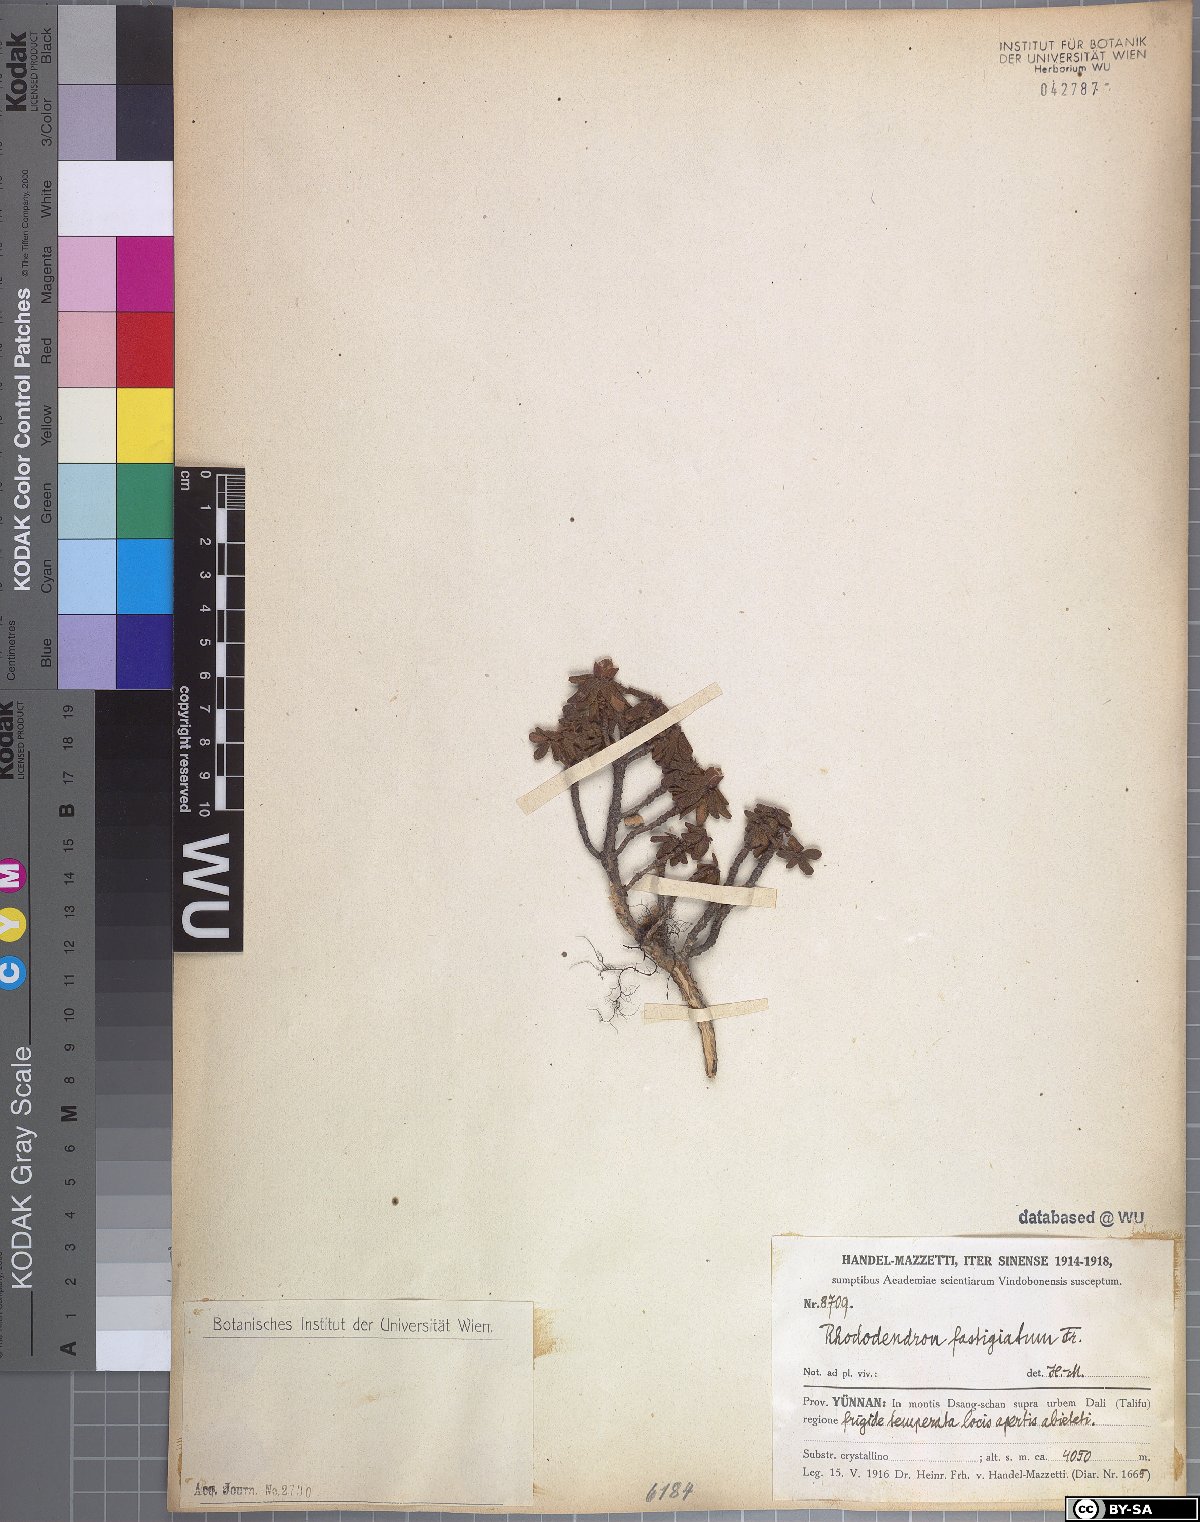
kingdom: Plantae
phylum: Tracheophyta
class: Magnoliopsida
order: Ericales
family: Ericaceae
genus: Rhododendron
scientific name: Rhododendron fastigiatum
